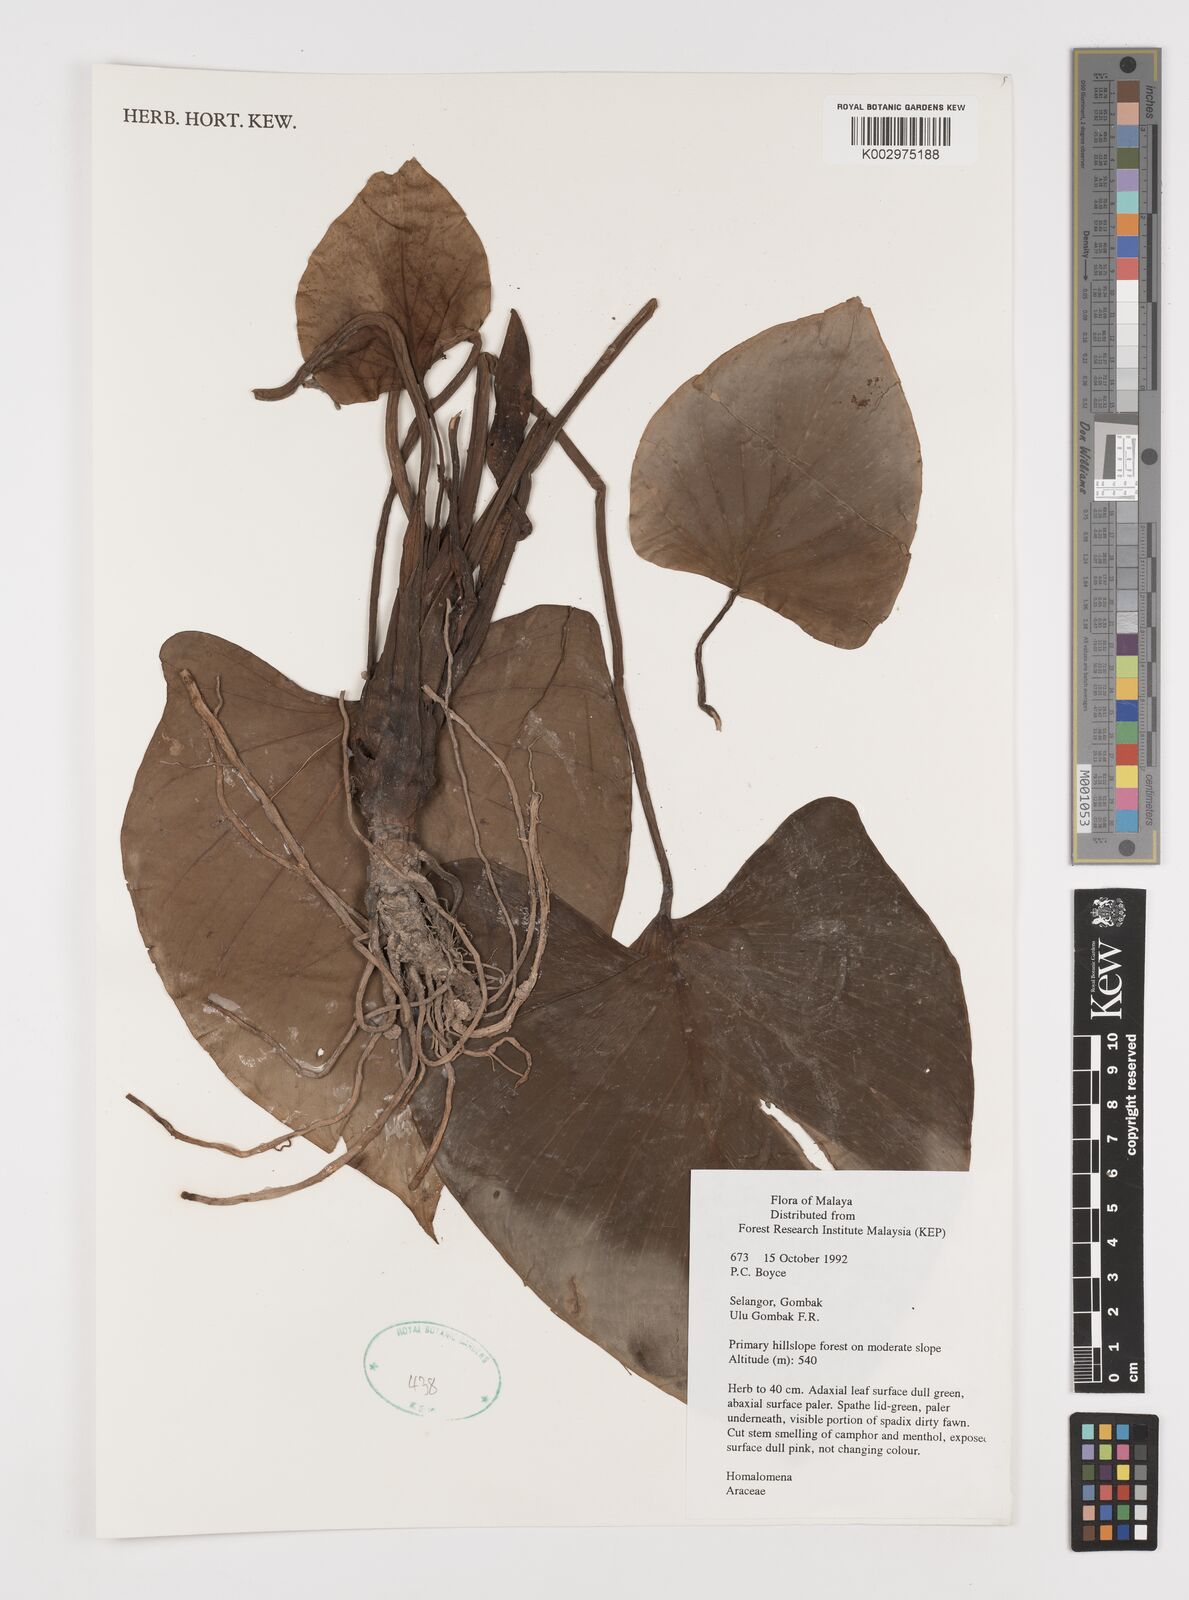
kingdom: Plantae
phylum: Tracheophyta
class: Liliopsida
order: Alismatales
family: Araceae
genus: Homalomena
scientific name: Homalomena
